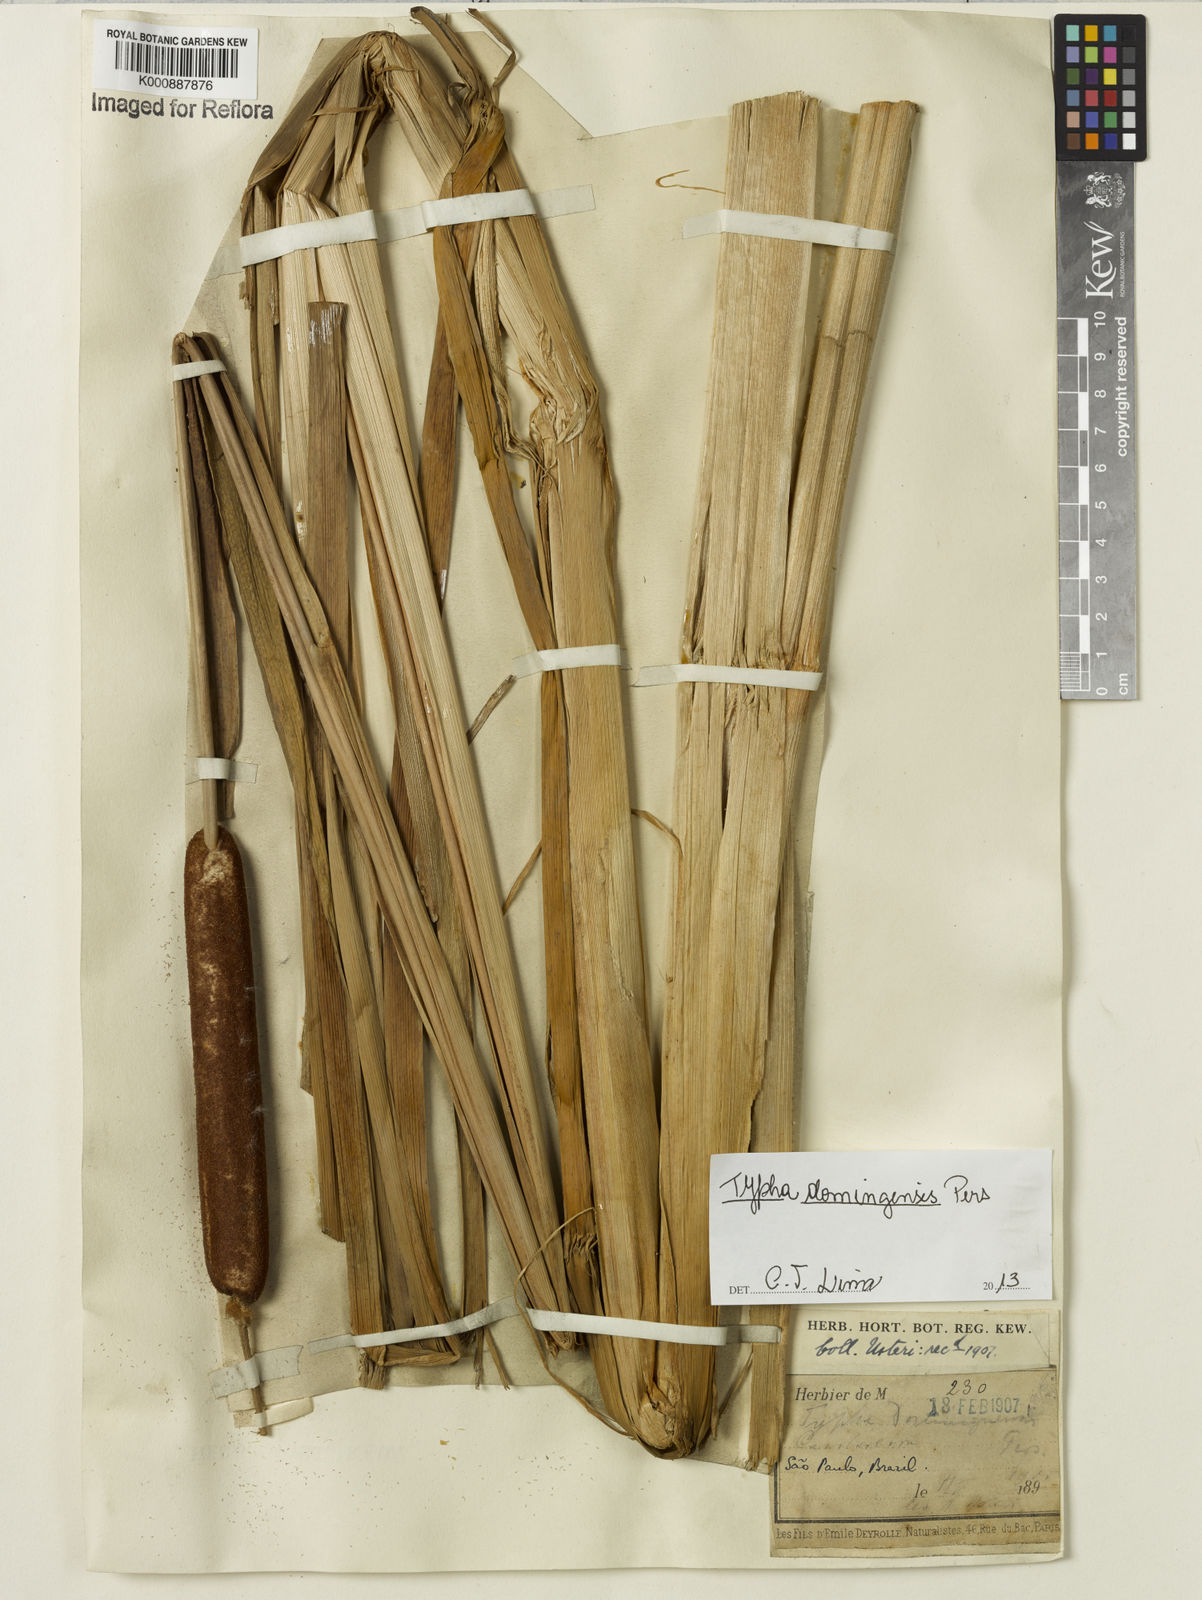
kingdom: Plantae
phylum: Tracheophyta
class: Magnoliopsida
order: Lamiales
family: Verbenaceae
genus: Lantana
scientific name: Lantana undulata
